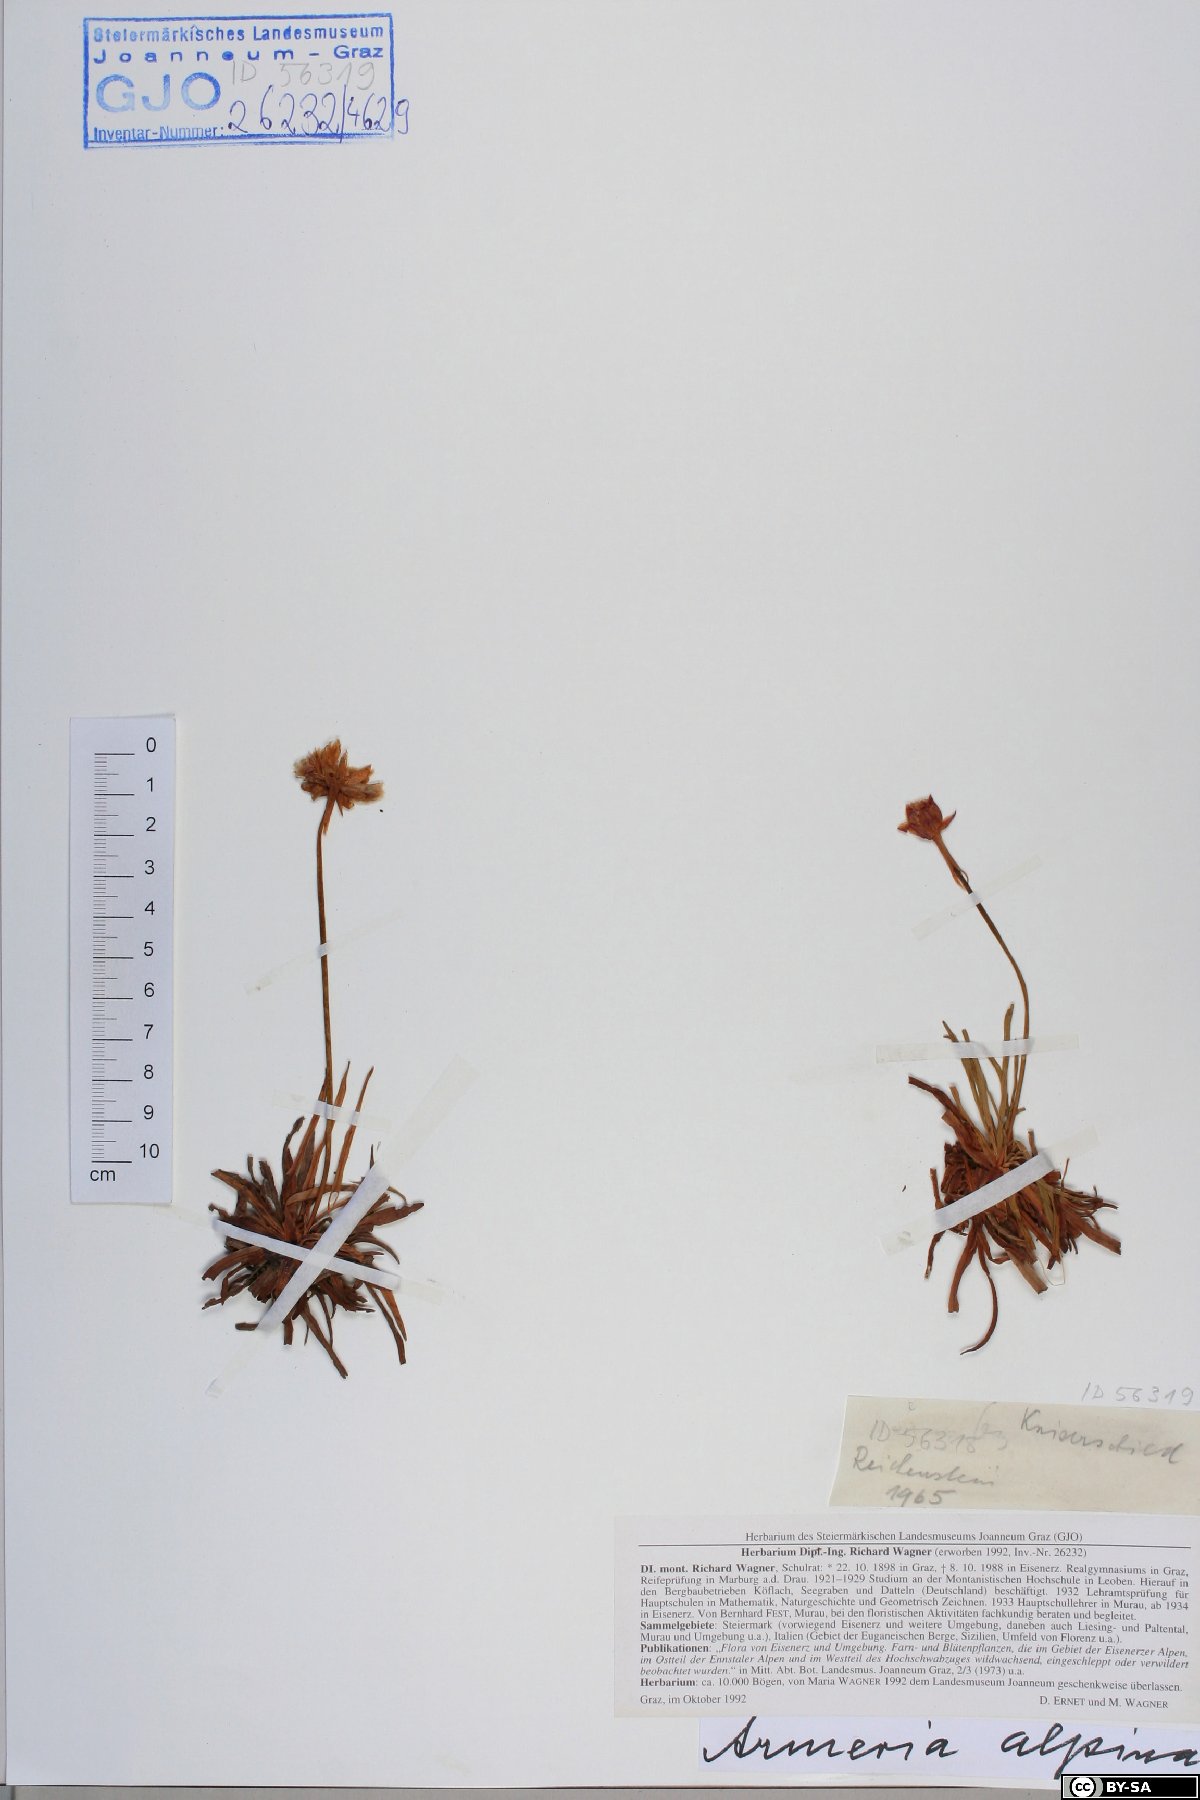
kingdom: Plantae
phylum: Tracheophyta
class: Magnoliopsida
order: Caryophyllales
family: Plumbaginaceae
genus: Armeria
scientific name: Armeria alpina
